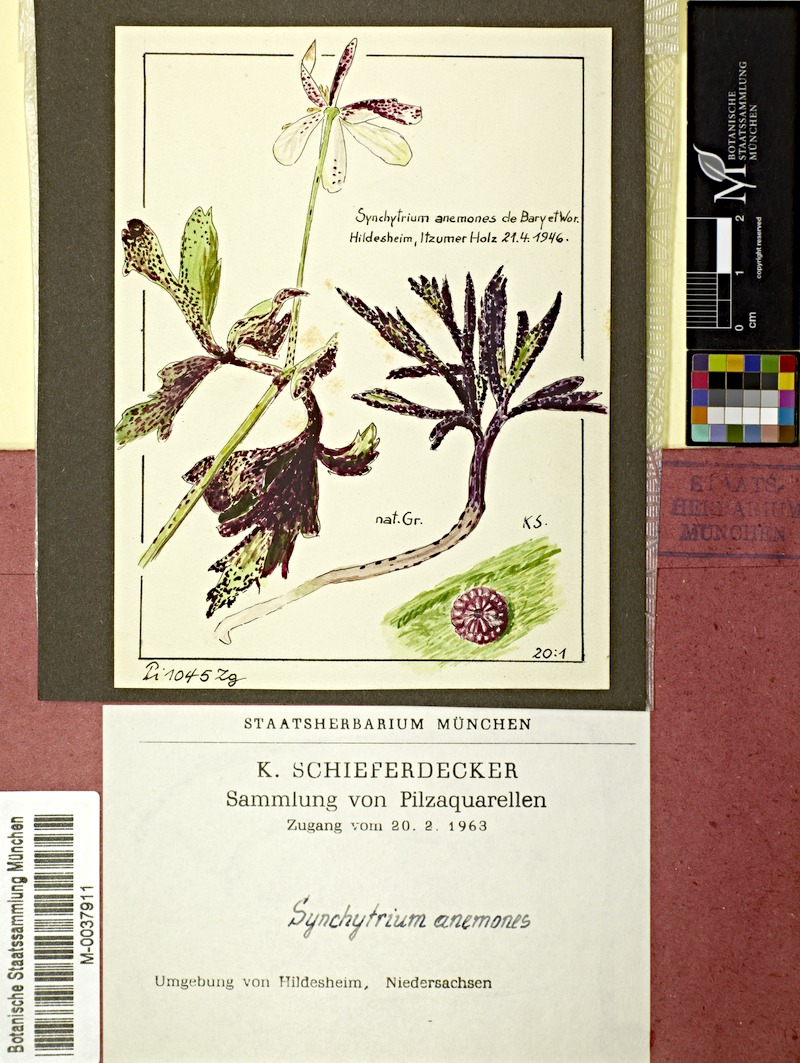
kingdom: Fungi
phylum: Chytridiomycota
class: Chytridiomycetes
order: Chytridiales
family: Synchytriaceae
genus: Synchytrium
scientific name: Synchytrium anemones
